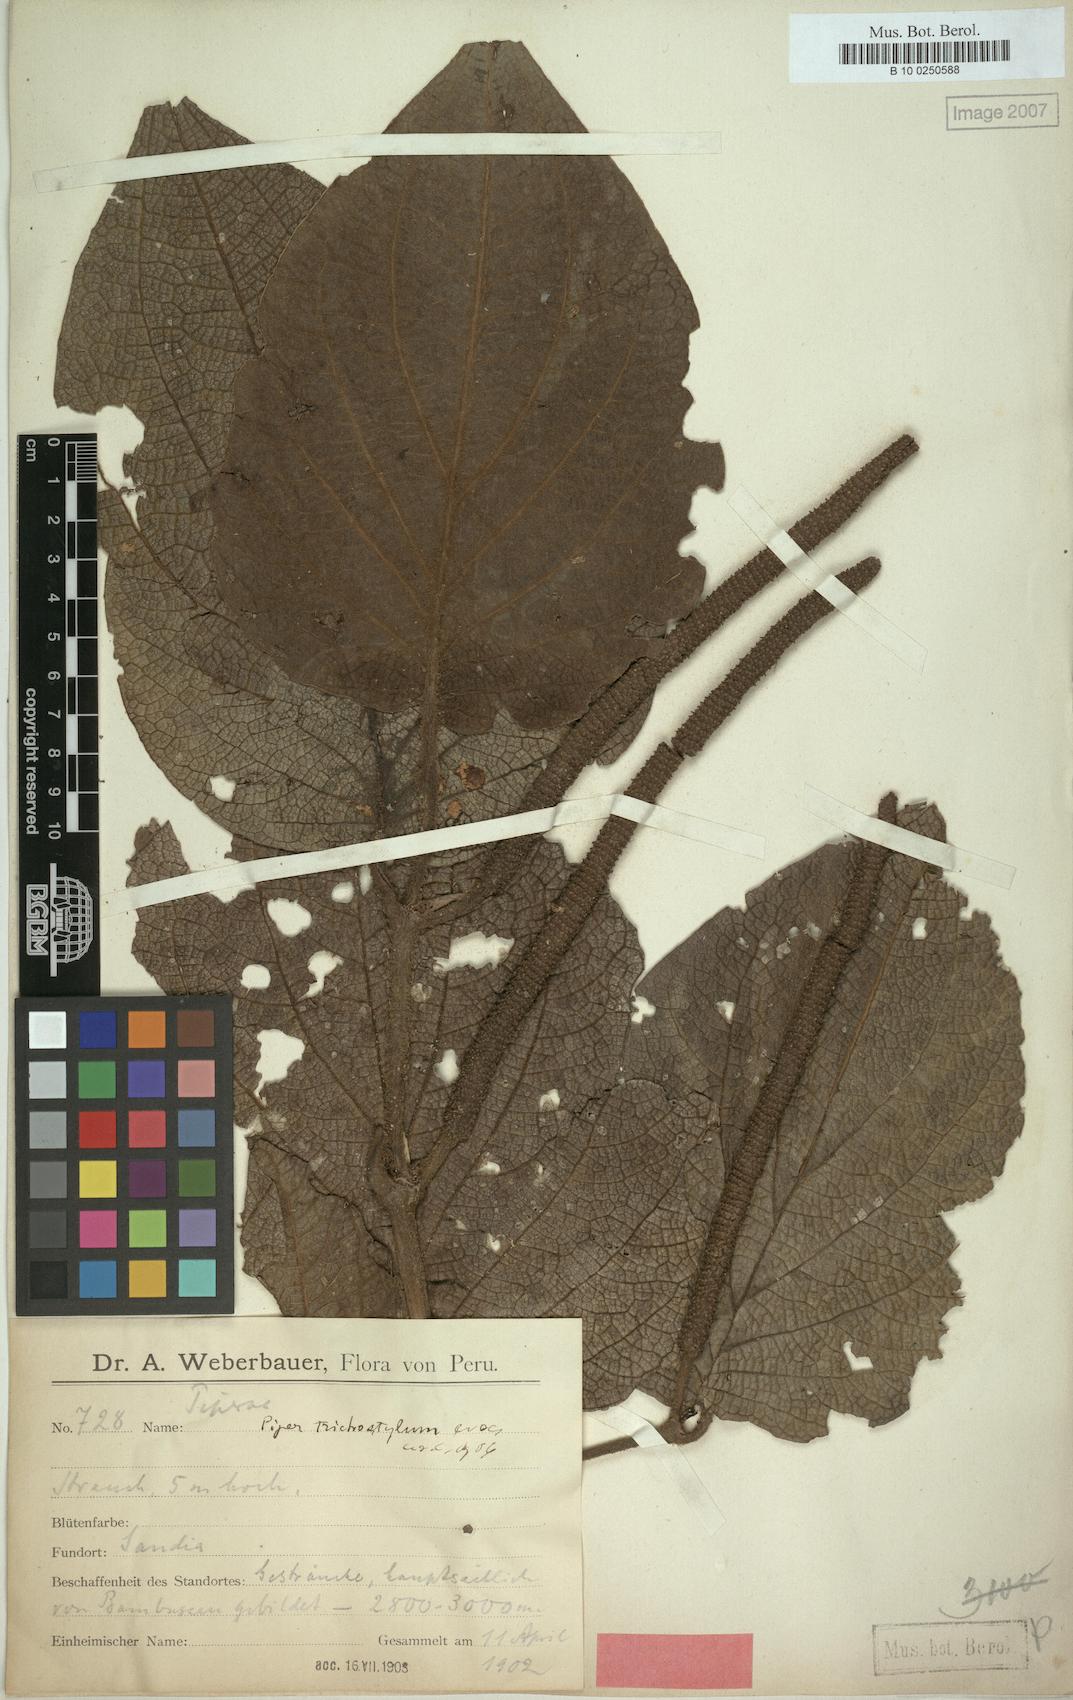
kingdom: Plantae
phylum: Tracheophyta
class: Magnoliopsida
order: Piperales
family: Piperaceae
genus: Piper
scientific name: Piper trichostylum
